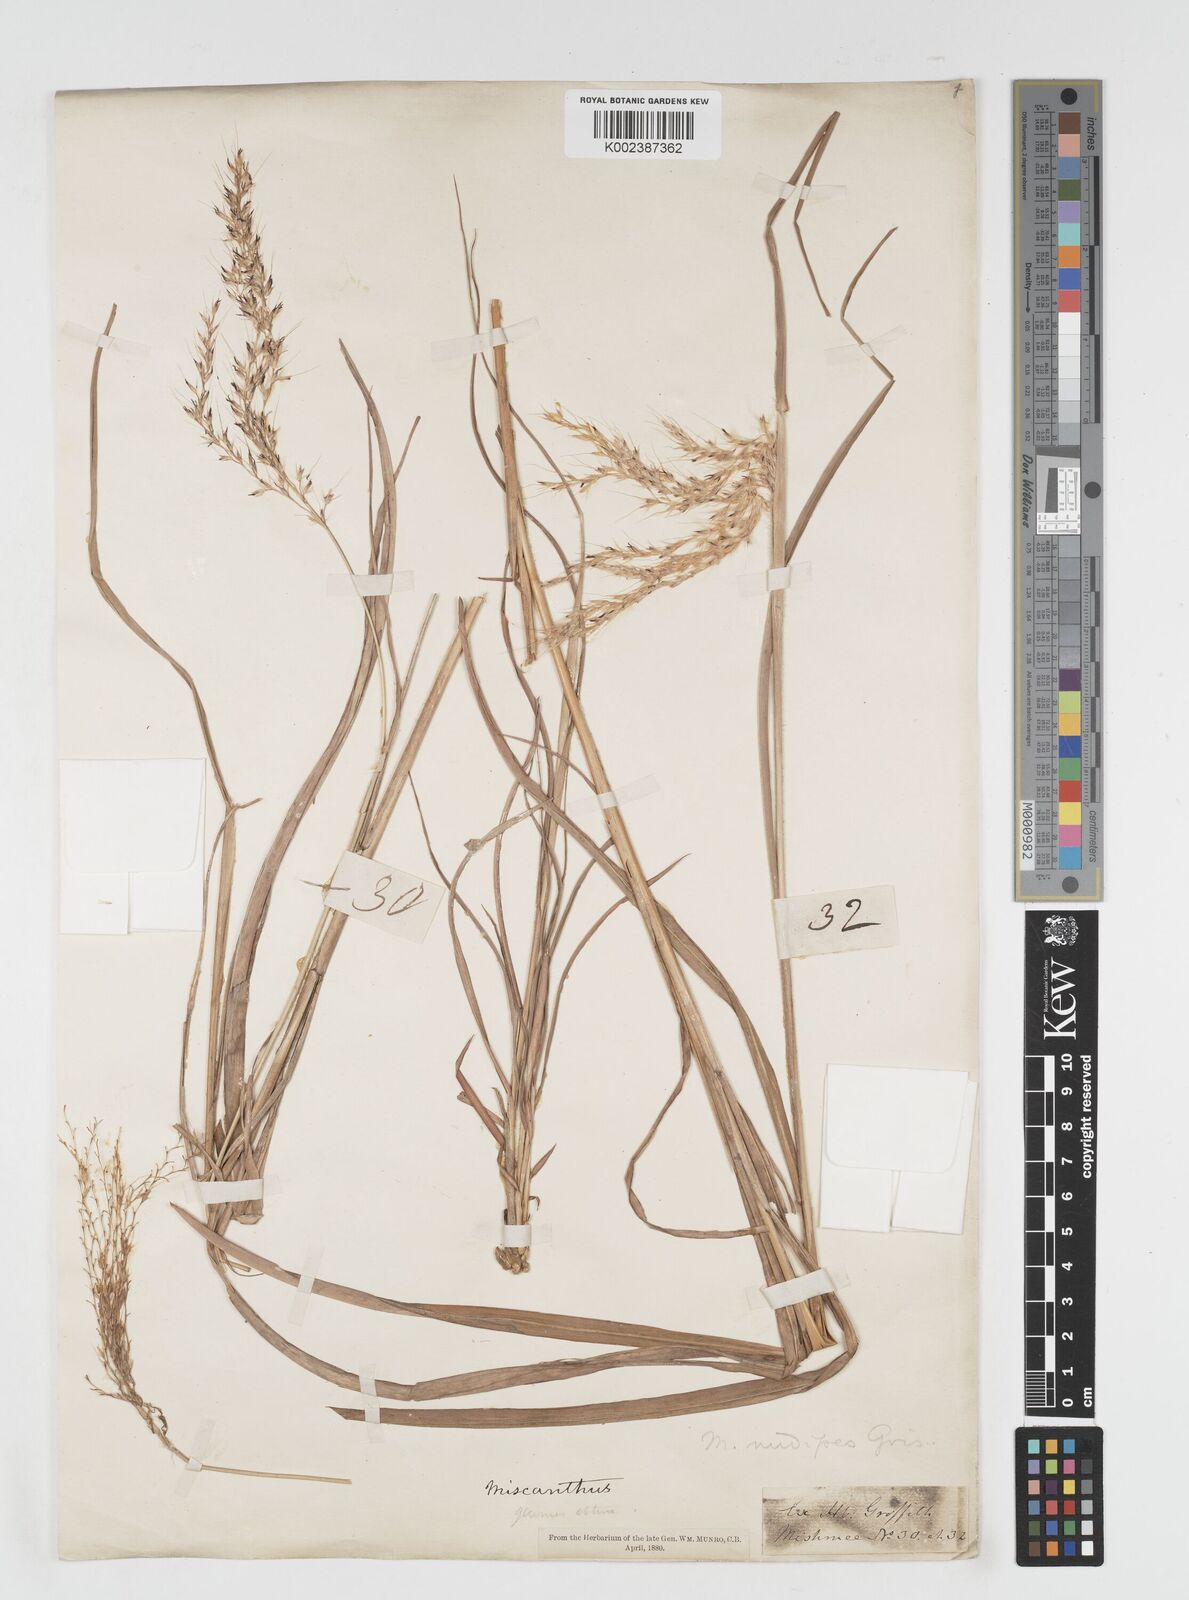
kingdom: Plantae
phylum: Tracheophyta
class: Liliopsida
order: Poales
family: Poaceae
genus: Miscanthus
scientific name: Miscanthus nudipes
